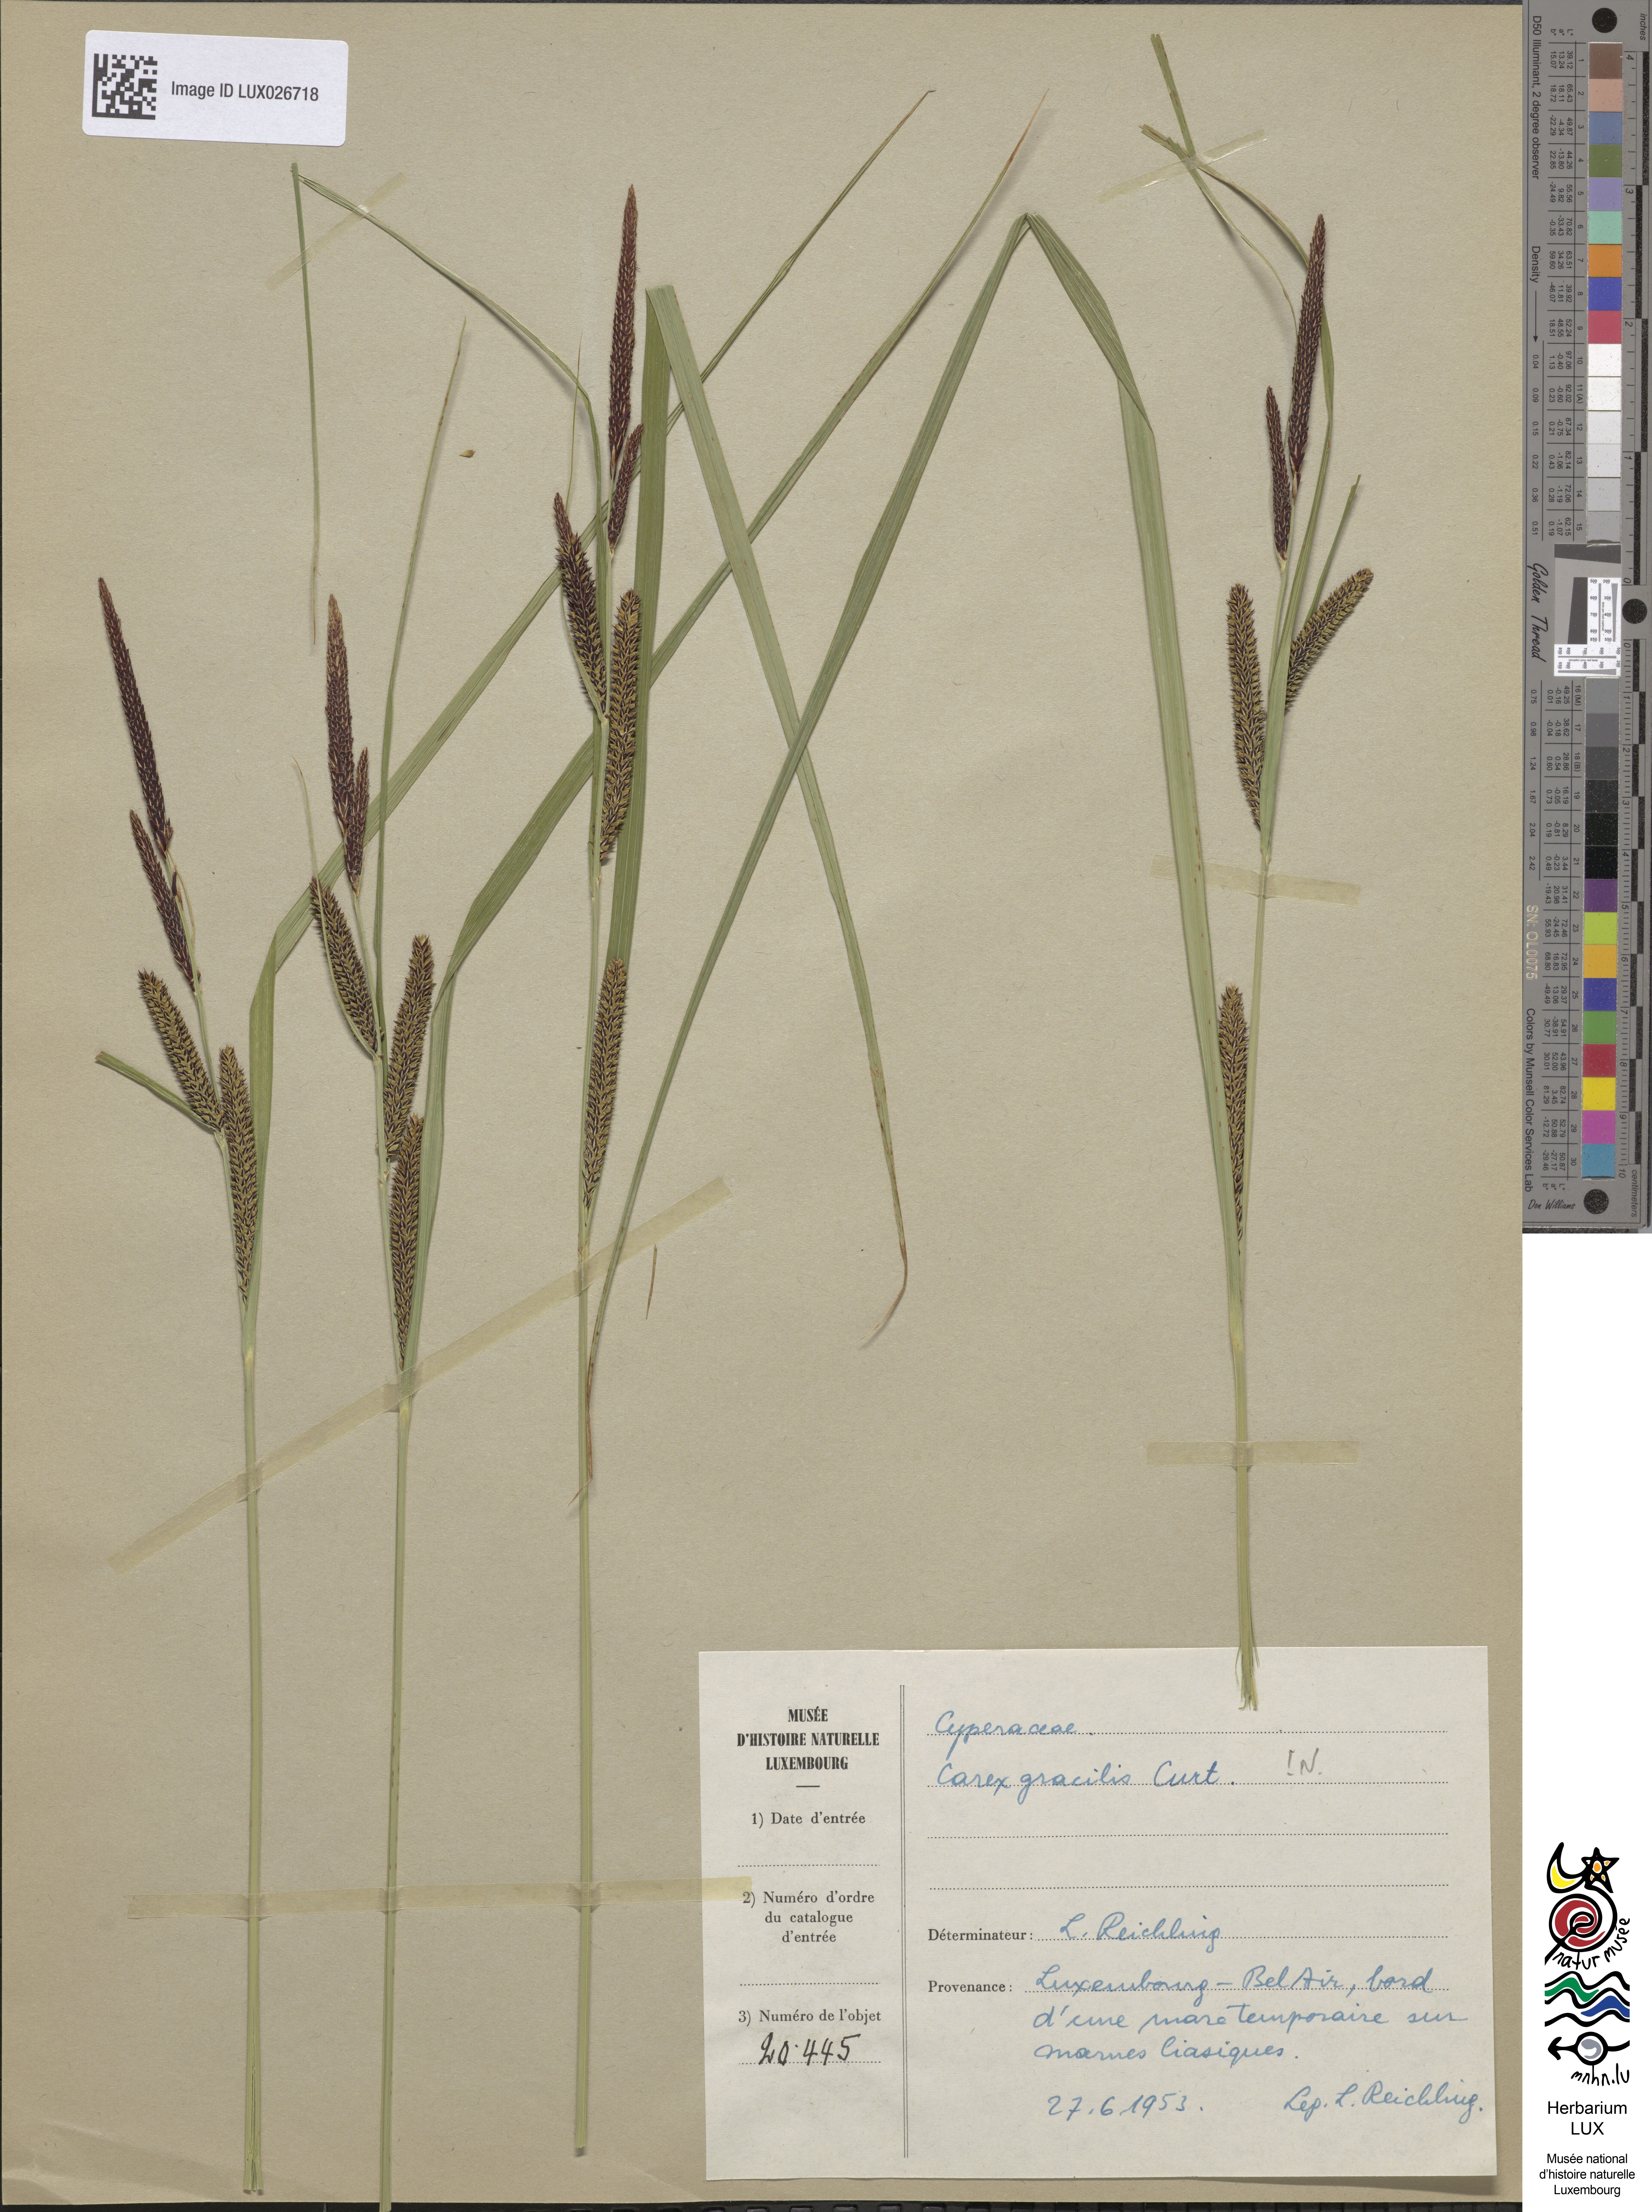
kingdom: Plantae
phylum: Tracheophyta
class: Liliopsida
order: Poales
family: Cyperaceae
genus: Carex
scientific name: Carex acuta
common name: Slender tufted-sedge
